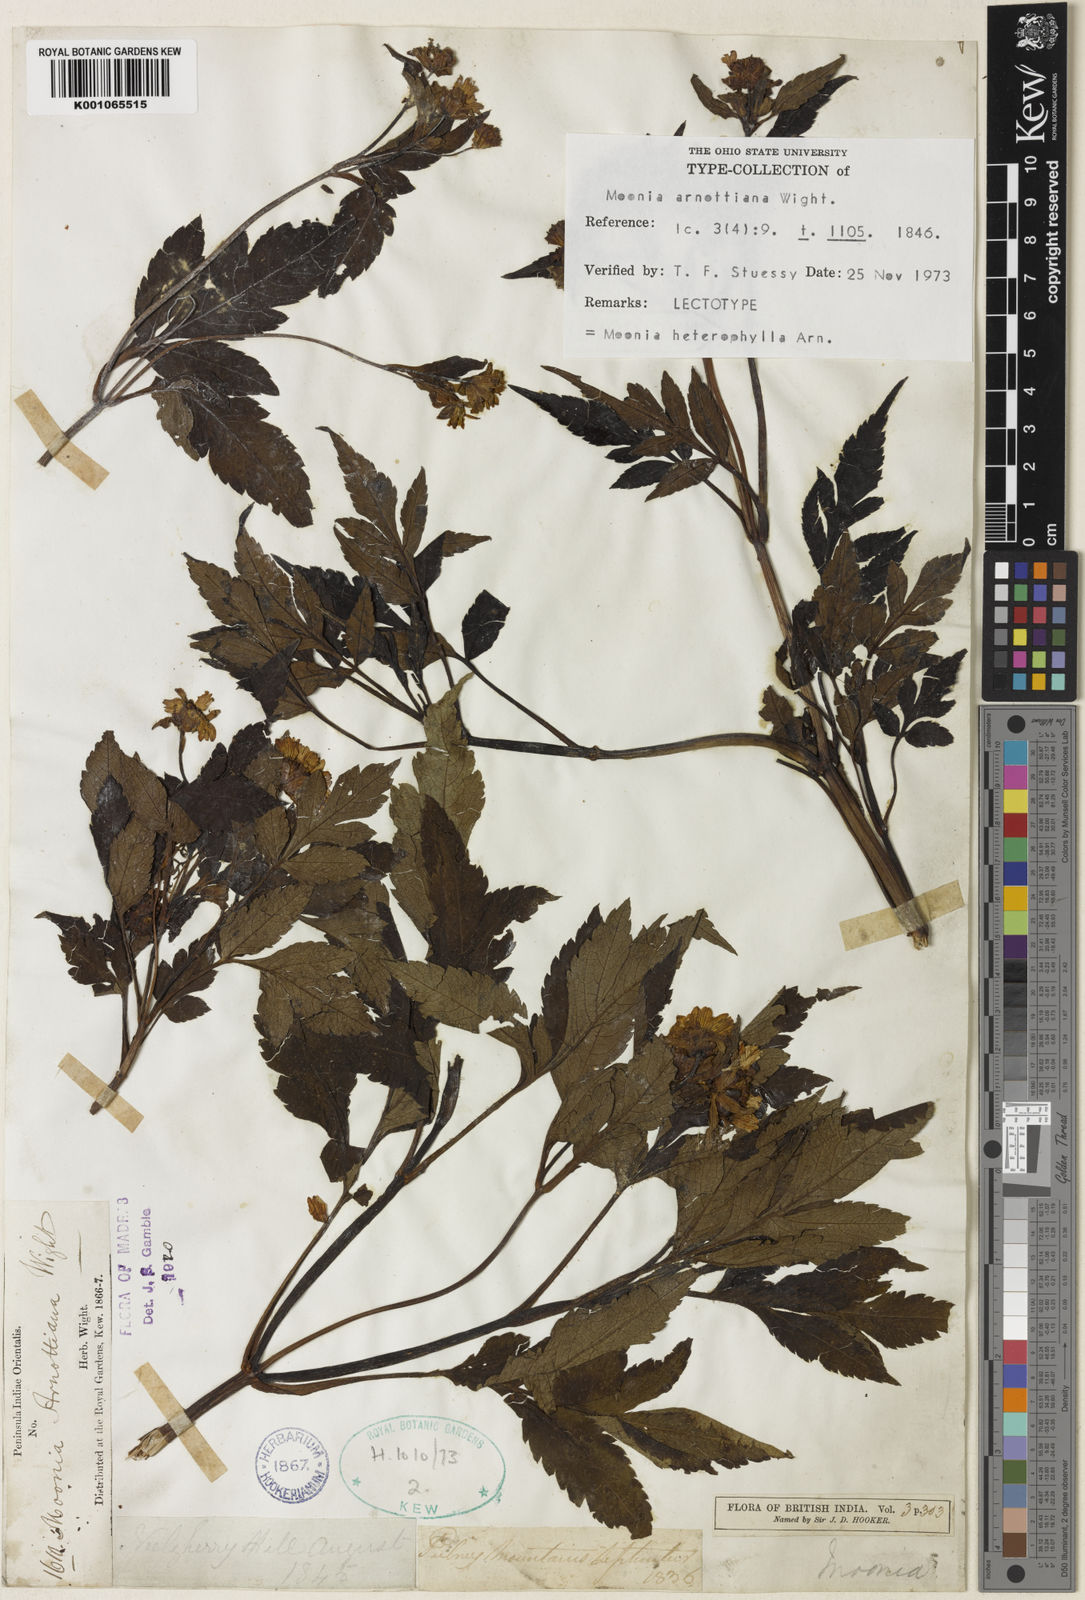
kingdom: Plantae
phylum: Tracheophyta
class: Magnoliopsida
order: Asterales
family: Asteraceae
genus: Moonia
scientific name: Moonia heterophylla
